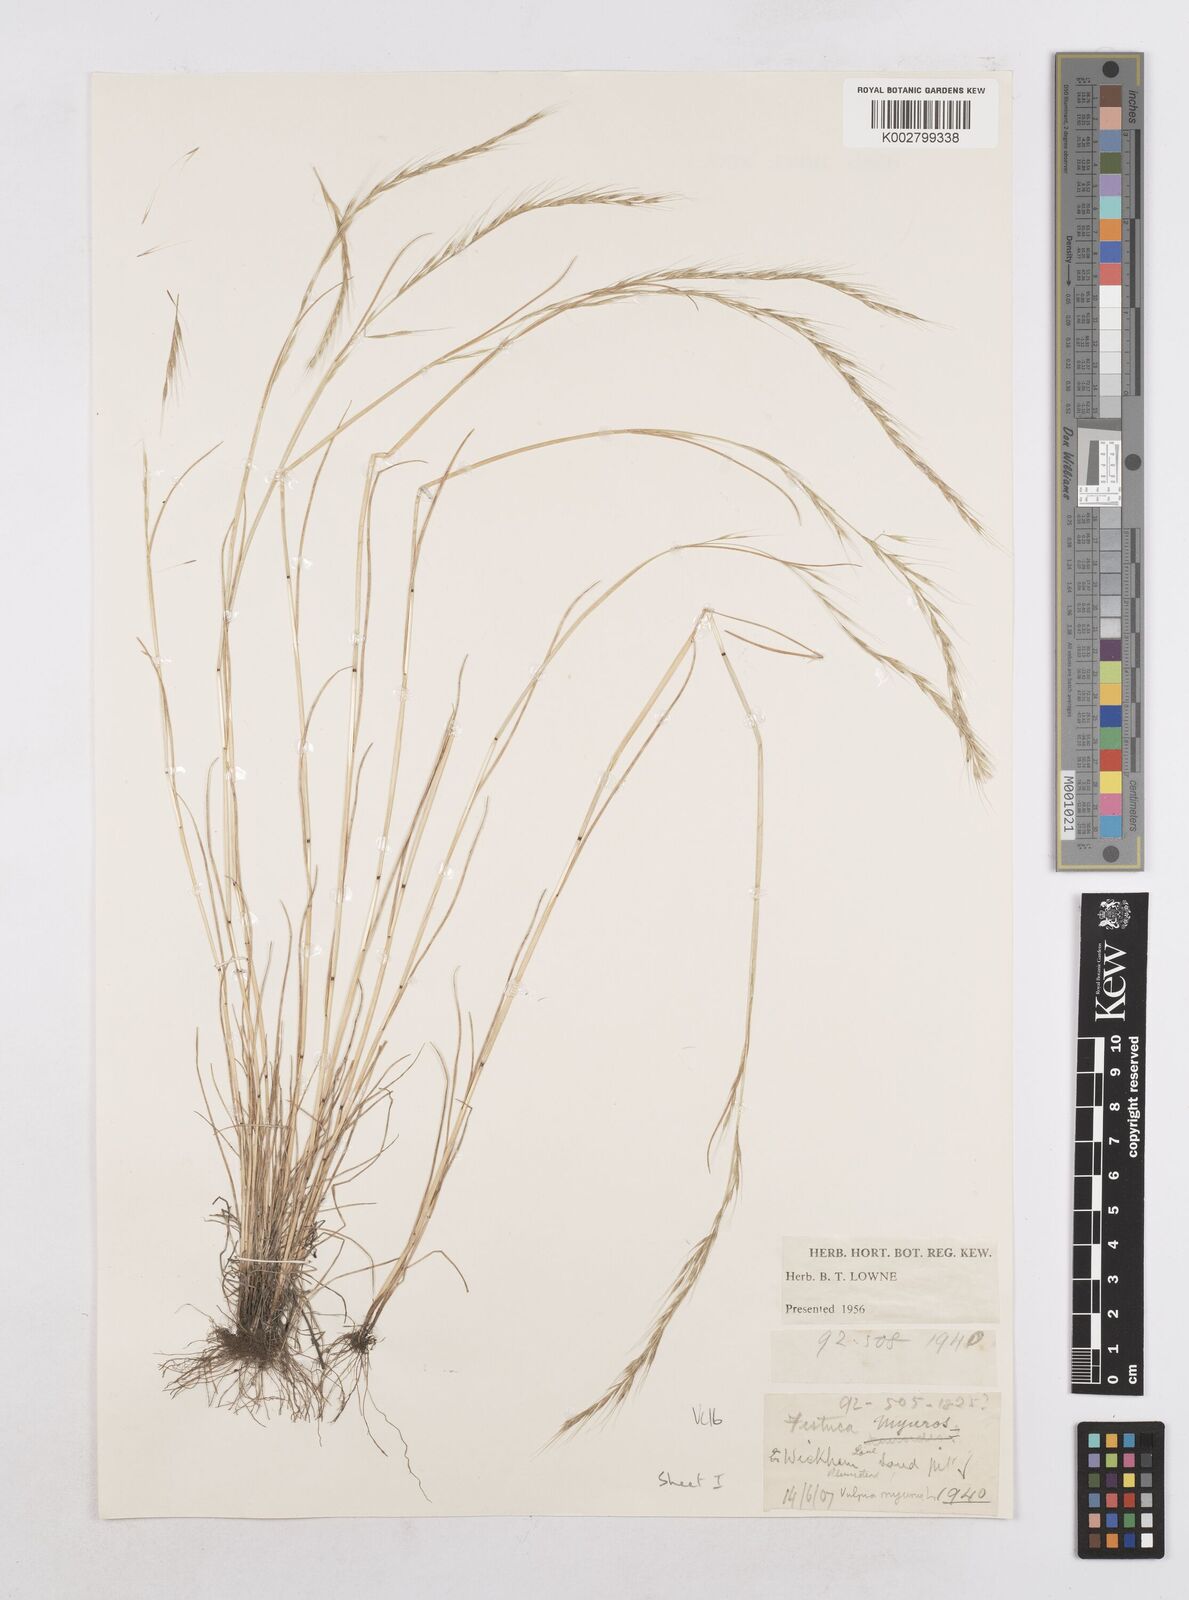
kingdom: Plantae
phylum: Tracheophyta
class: Liliopsida
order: Poales
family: Poaceae
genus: Festuca
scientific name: Festuca myuros
